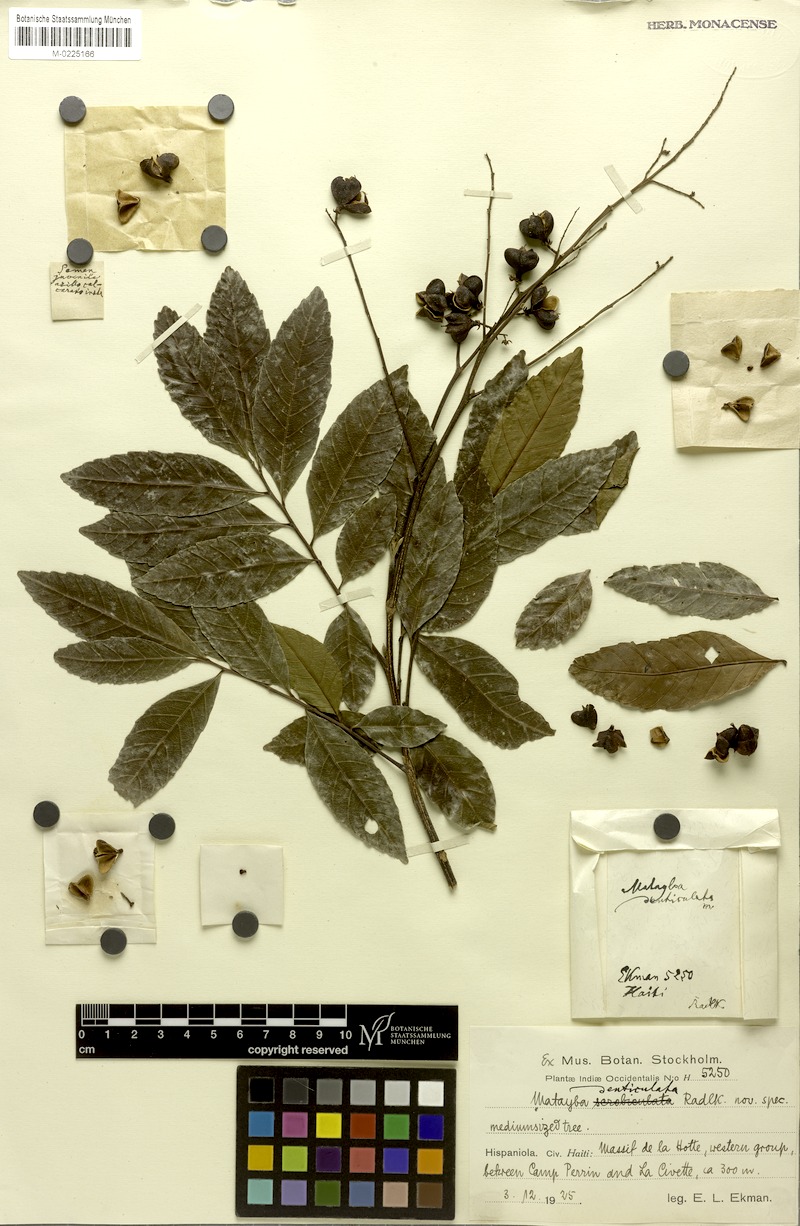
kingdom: Plantae
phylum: Tracheophyta
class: Magnoliopsida
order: Sapindales
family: Sapindaceae
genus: Cupania
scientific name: Cupania glabra
